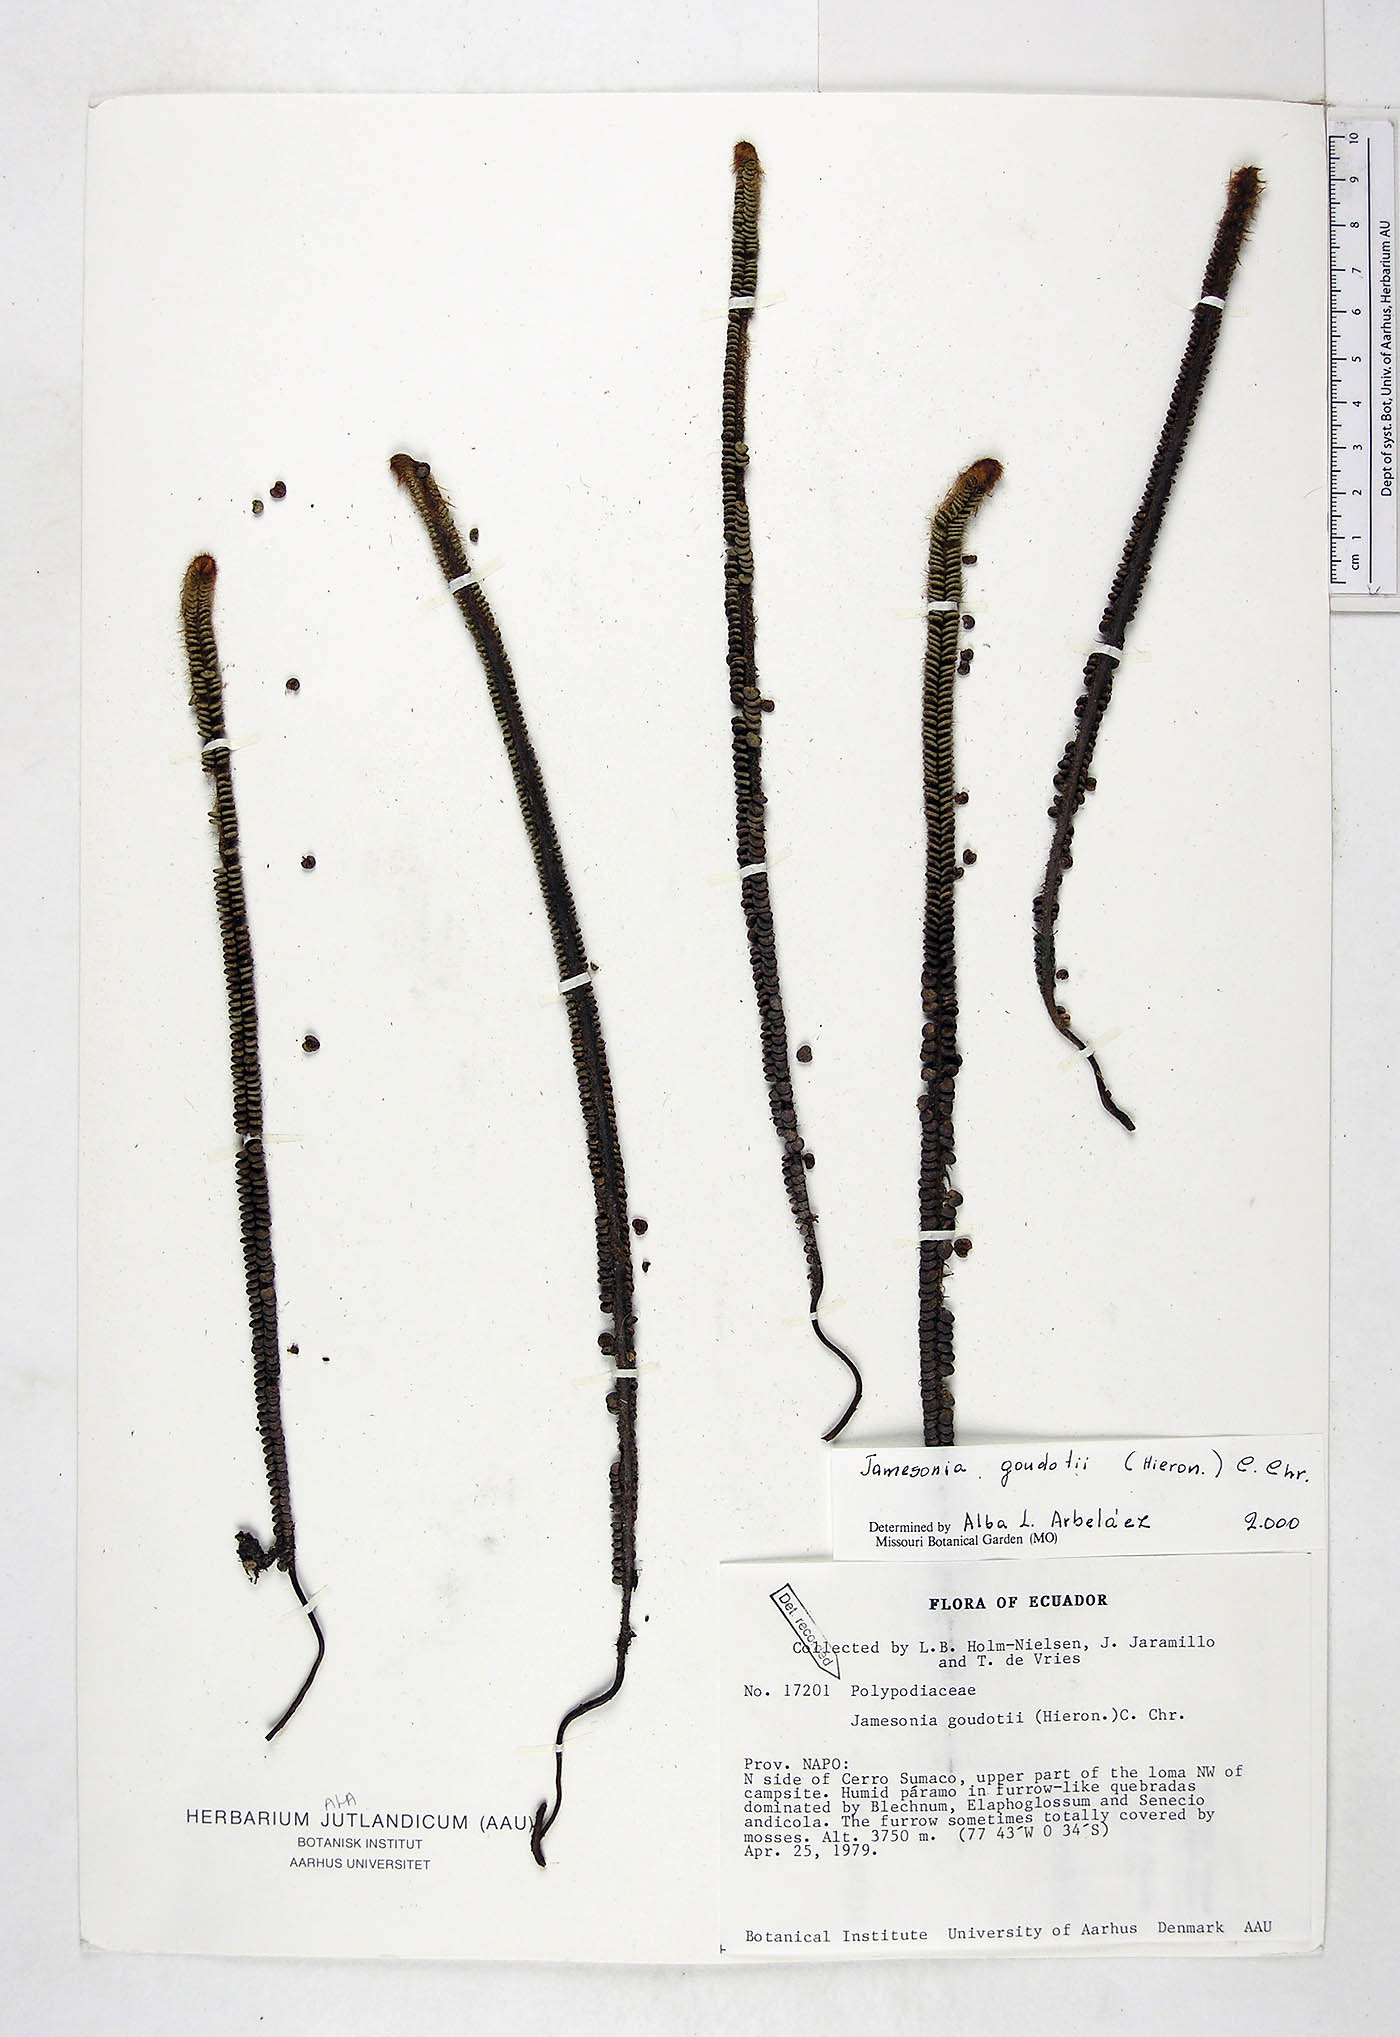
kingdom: Plantae
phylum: Tracheophyta
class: Polypodiopsida
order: Polypodiales
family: Pteridaceae
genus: Jamesonia
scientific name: Jamesonia goudotii
